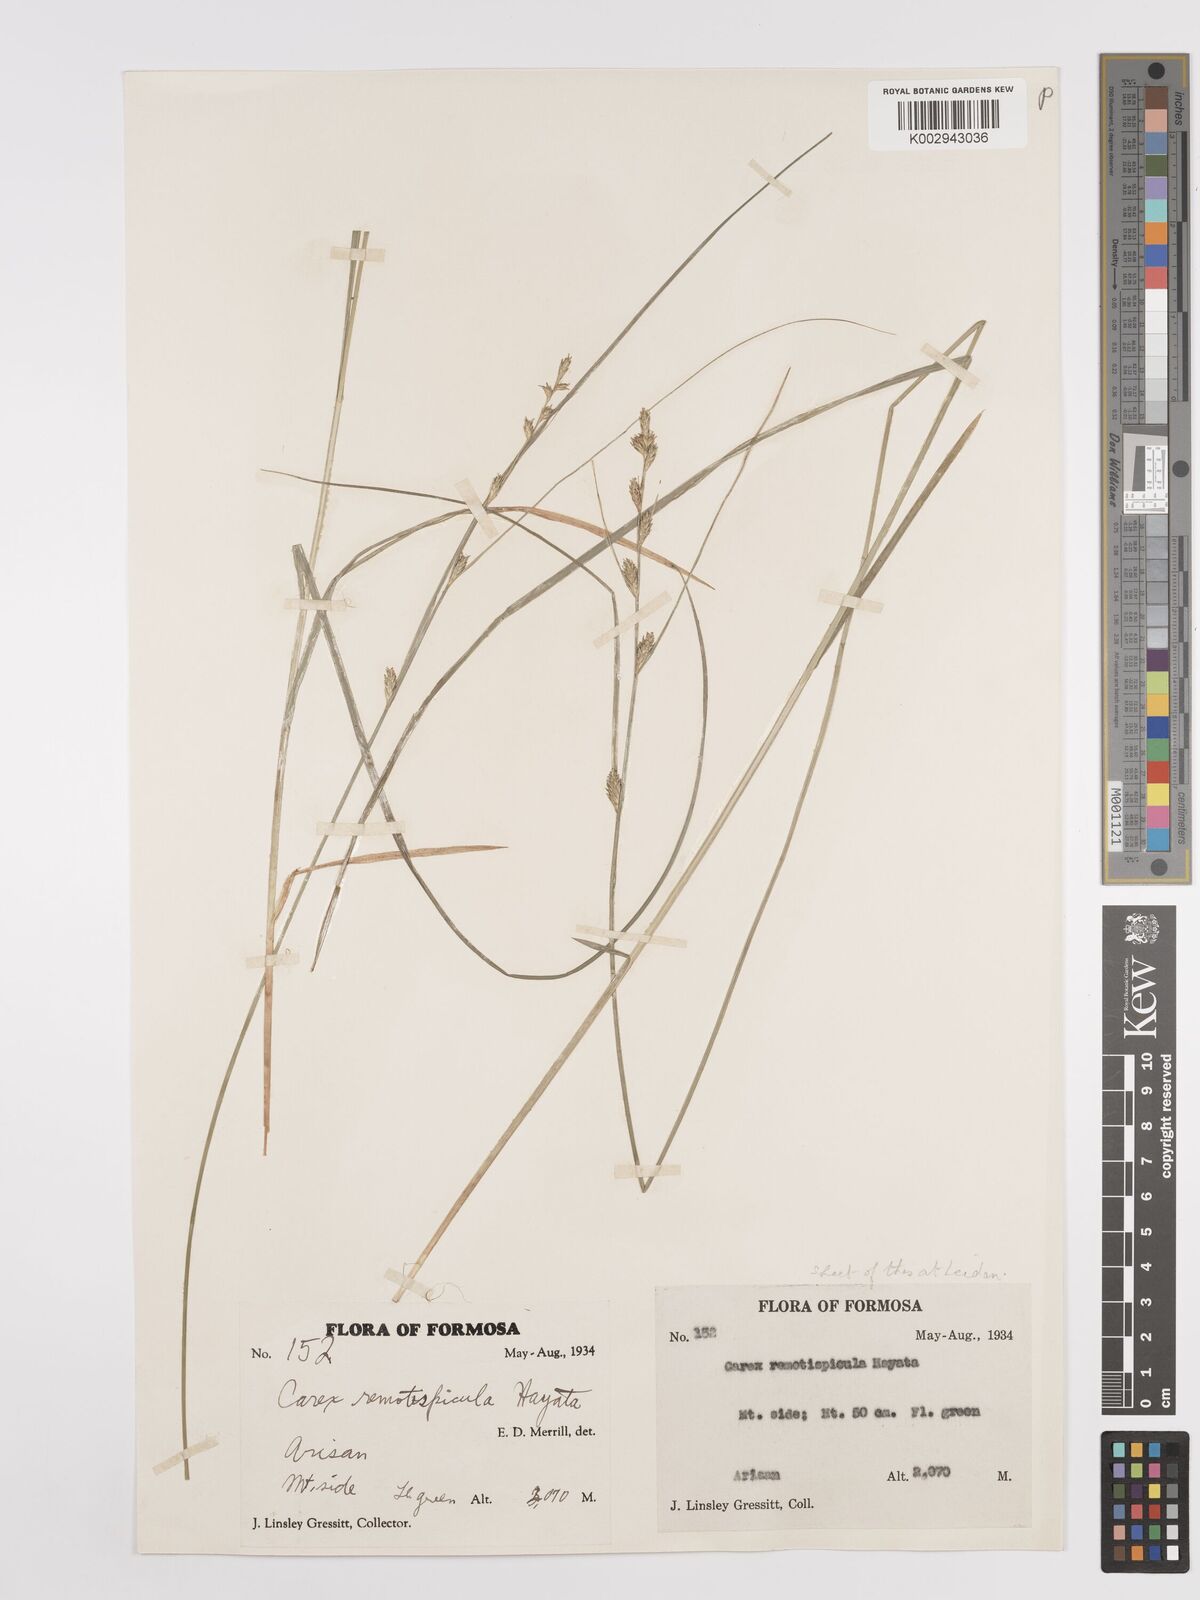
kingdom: Plantae
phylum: Tracheophyta
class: Liliopsida
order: Poales
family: Cyperaceae
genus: Carex
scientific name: Carex rochebrunei
